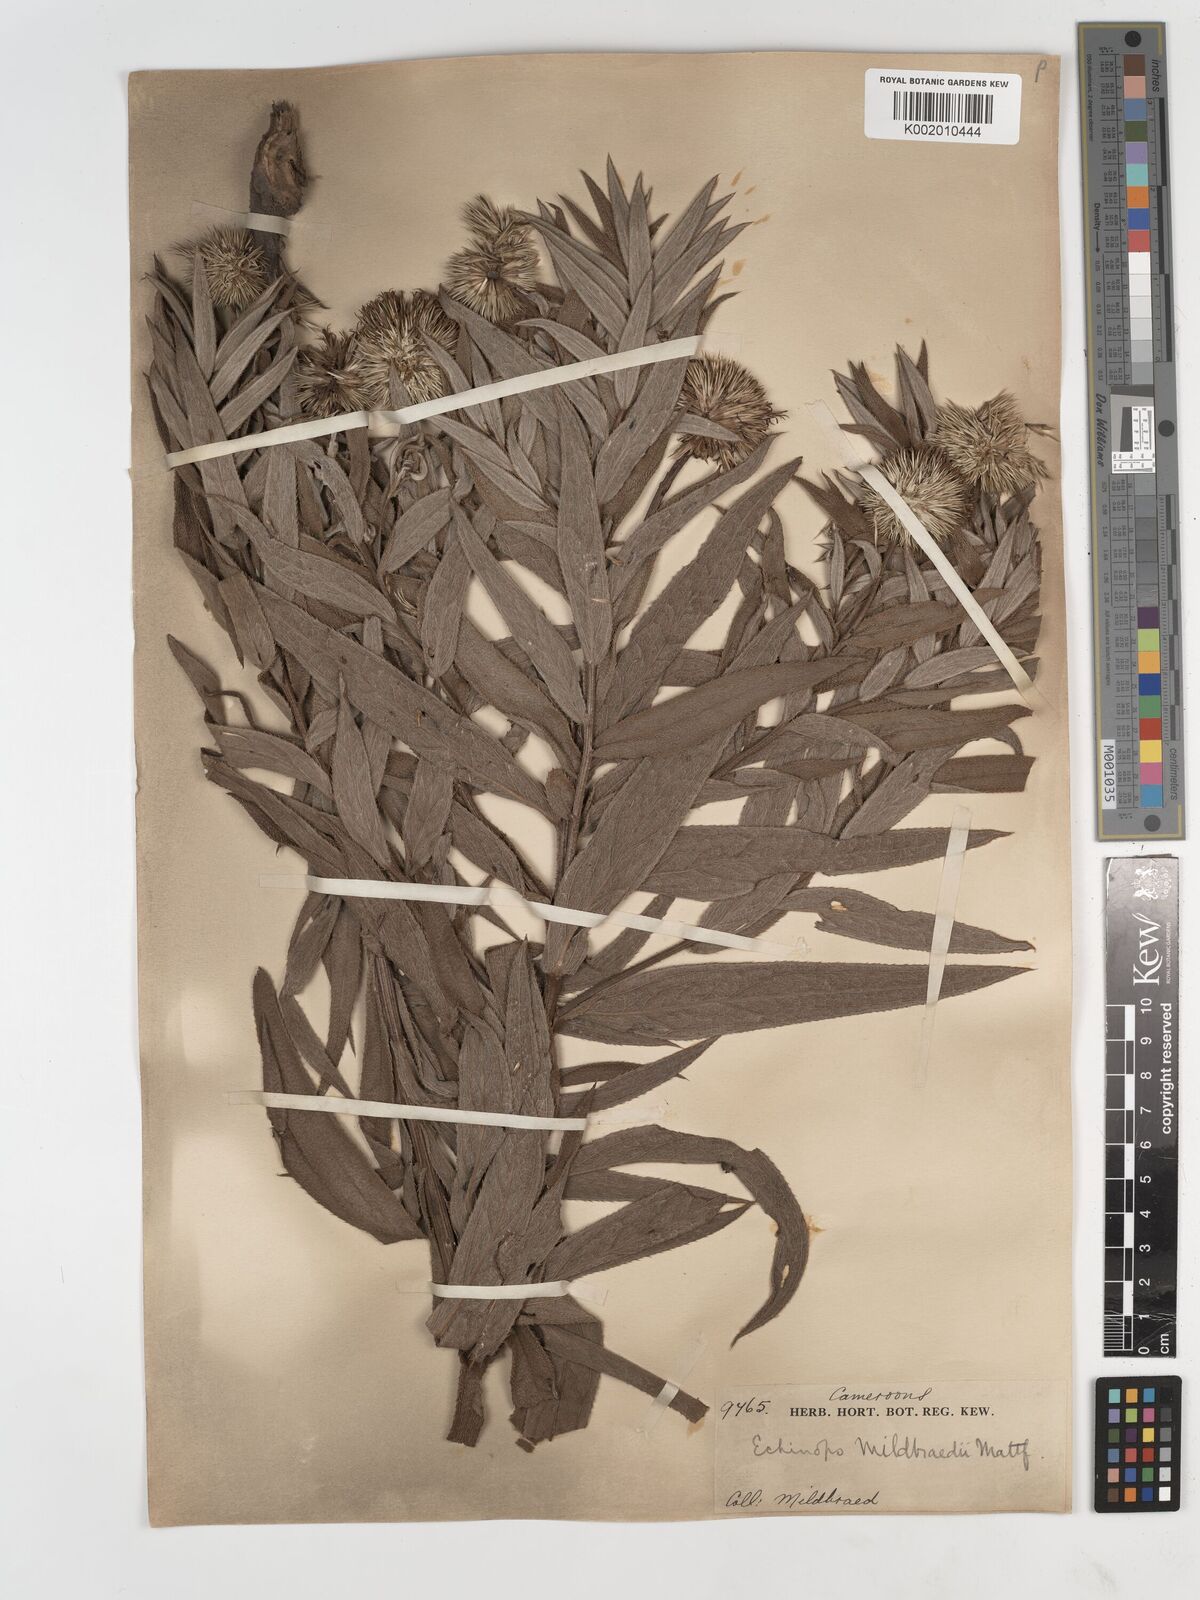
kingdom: Plantae
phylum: Tracheophyta
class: Magnoliopsida
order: Asterales
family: Asteraceae
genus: Echinops
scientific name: Echinops mildbraedii
